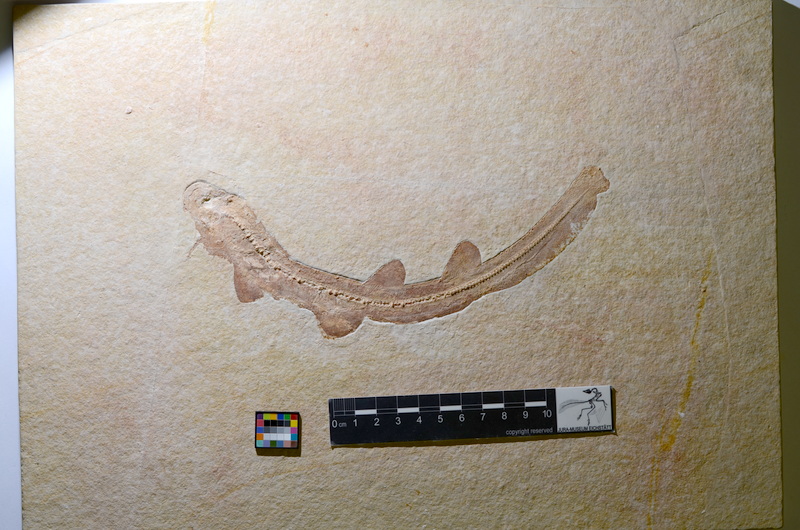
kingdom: Animalia
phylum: Chordata
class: Elasmobranchii
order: Carcharhiniformes
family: Scyliorhinidae
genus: Bavariscyllium
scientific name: Bavariscyllium tischlingeri
